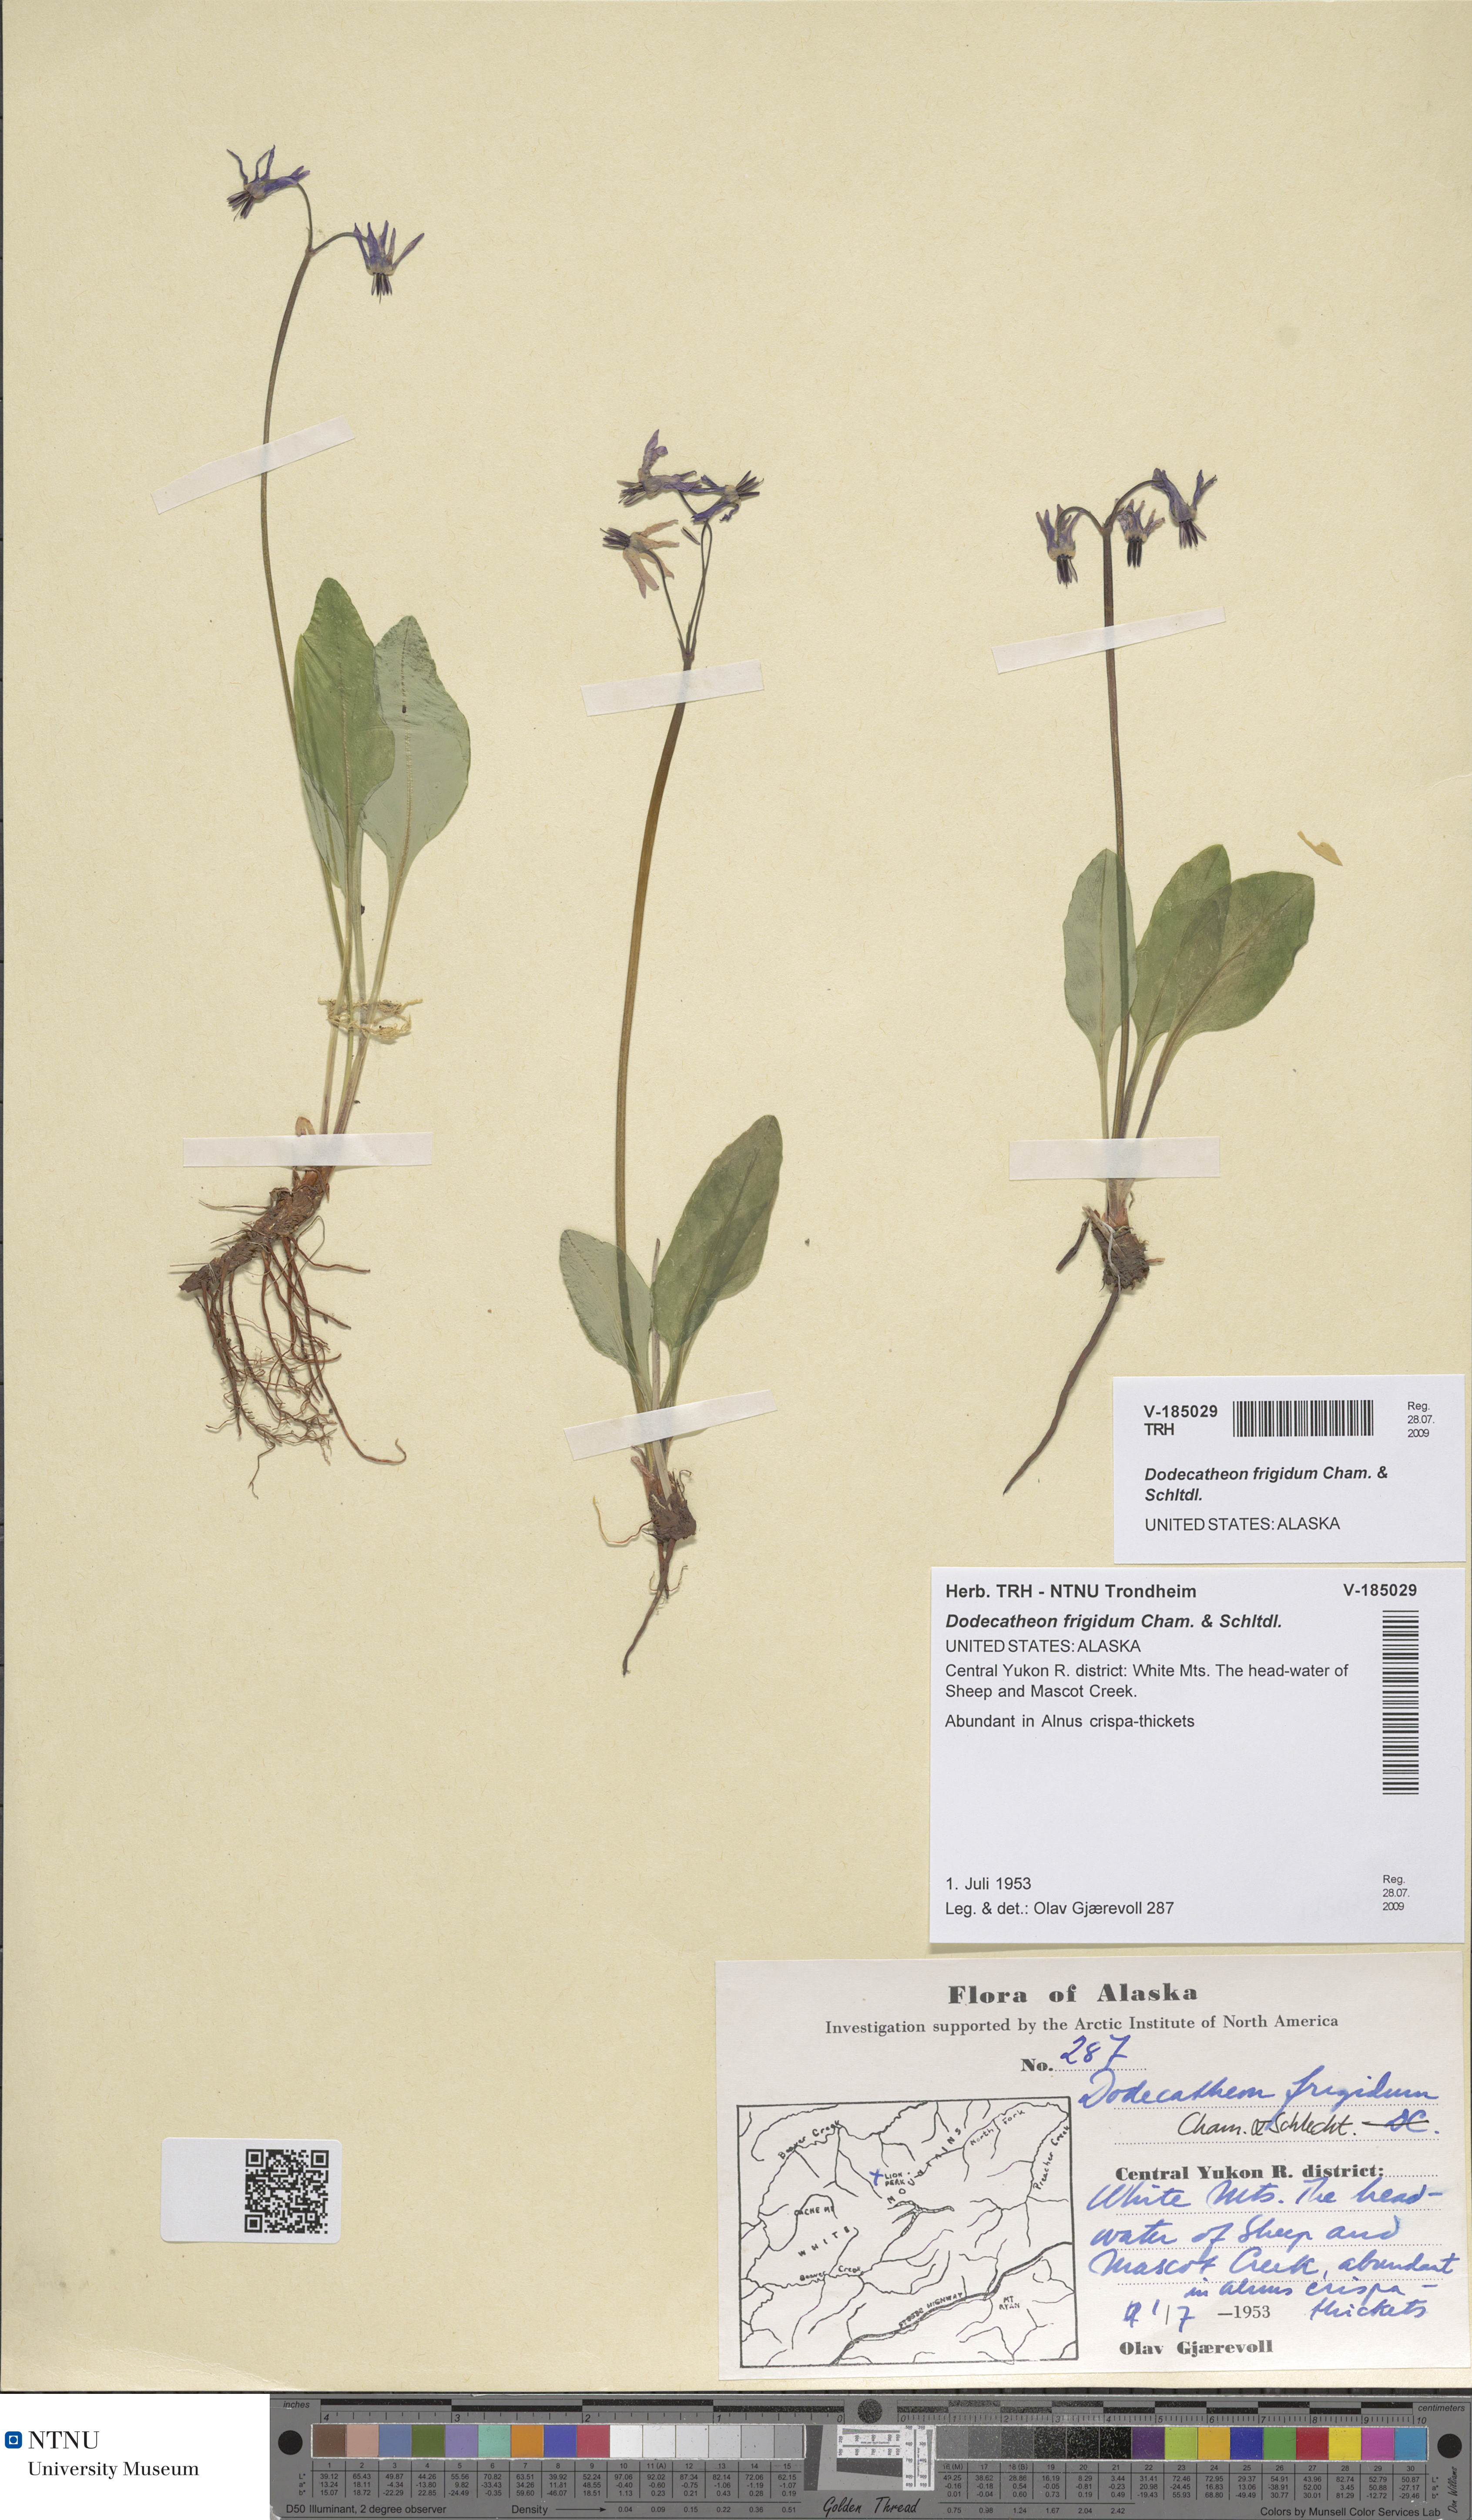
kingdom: Plantae
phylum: Tracheophyta
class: Magnoliopsida
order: Ericales
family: Primulaceae
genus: Dodecatheon
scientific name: Dodecatheon frigidum
